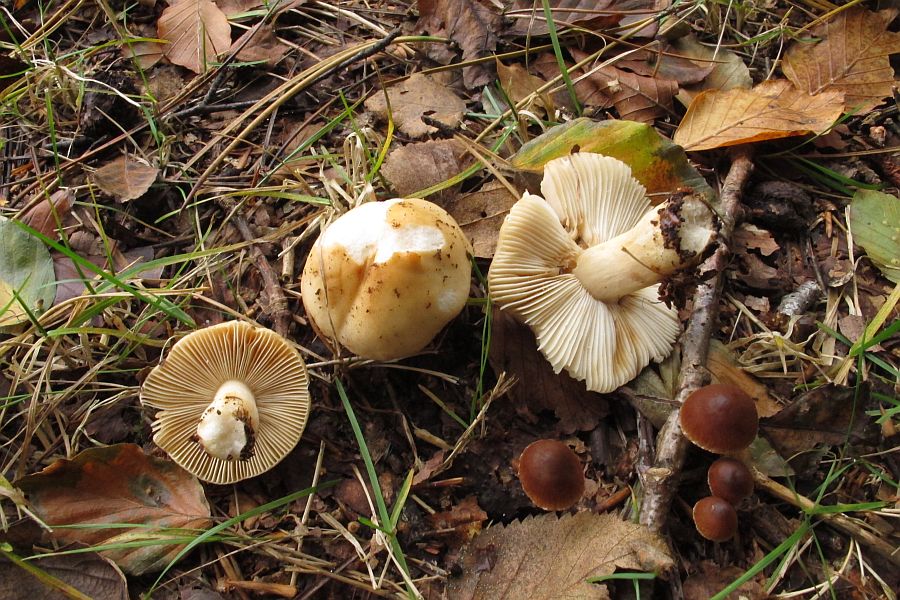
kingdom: Fungi
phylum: Basidiomycota
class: Agaricomycetes
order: Russulales
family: Russulaceae
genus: Russula
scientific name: Russula fellea
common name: galde-skørhat
